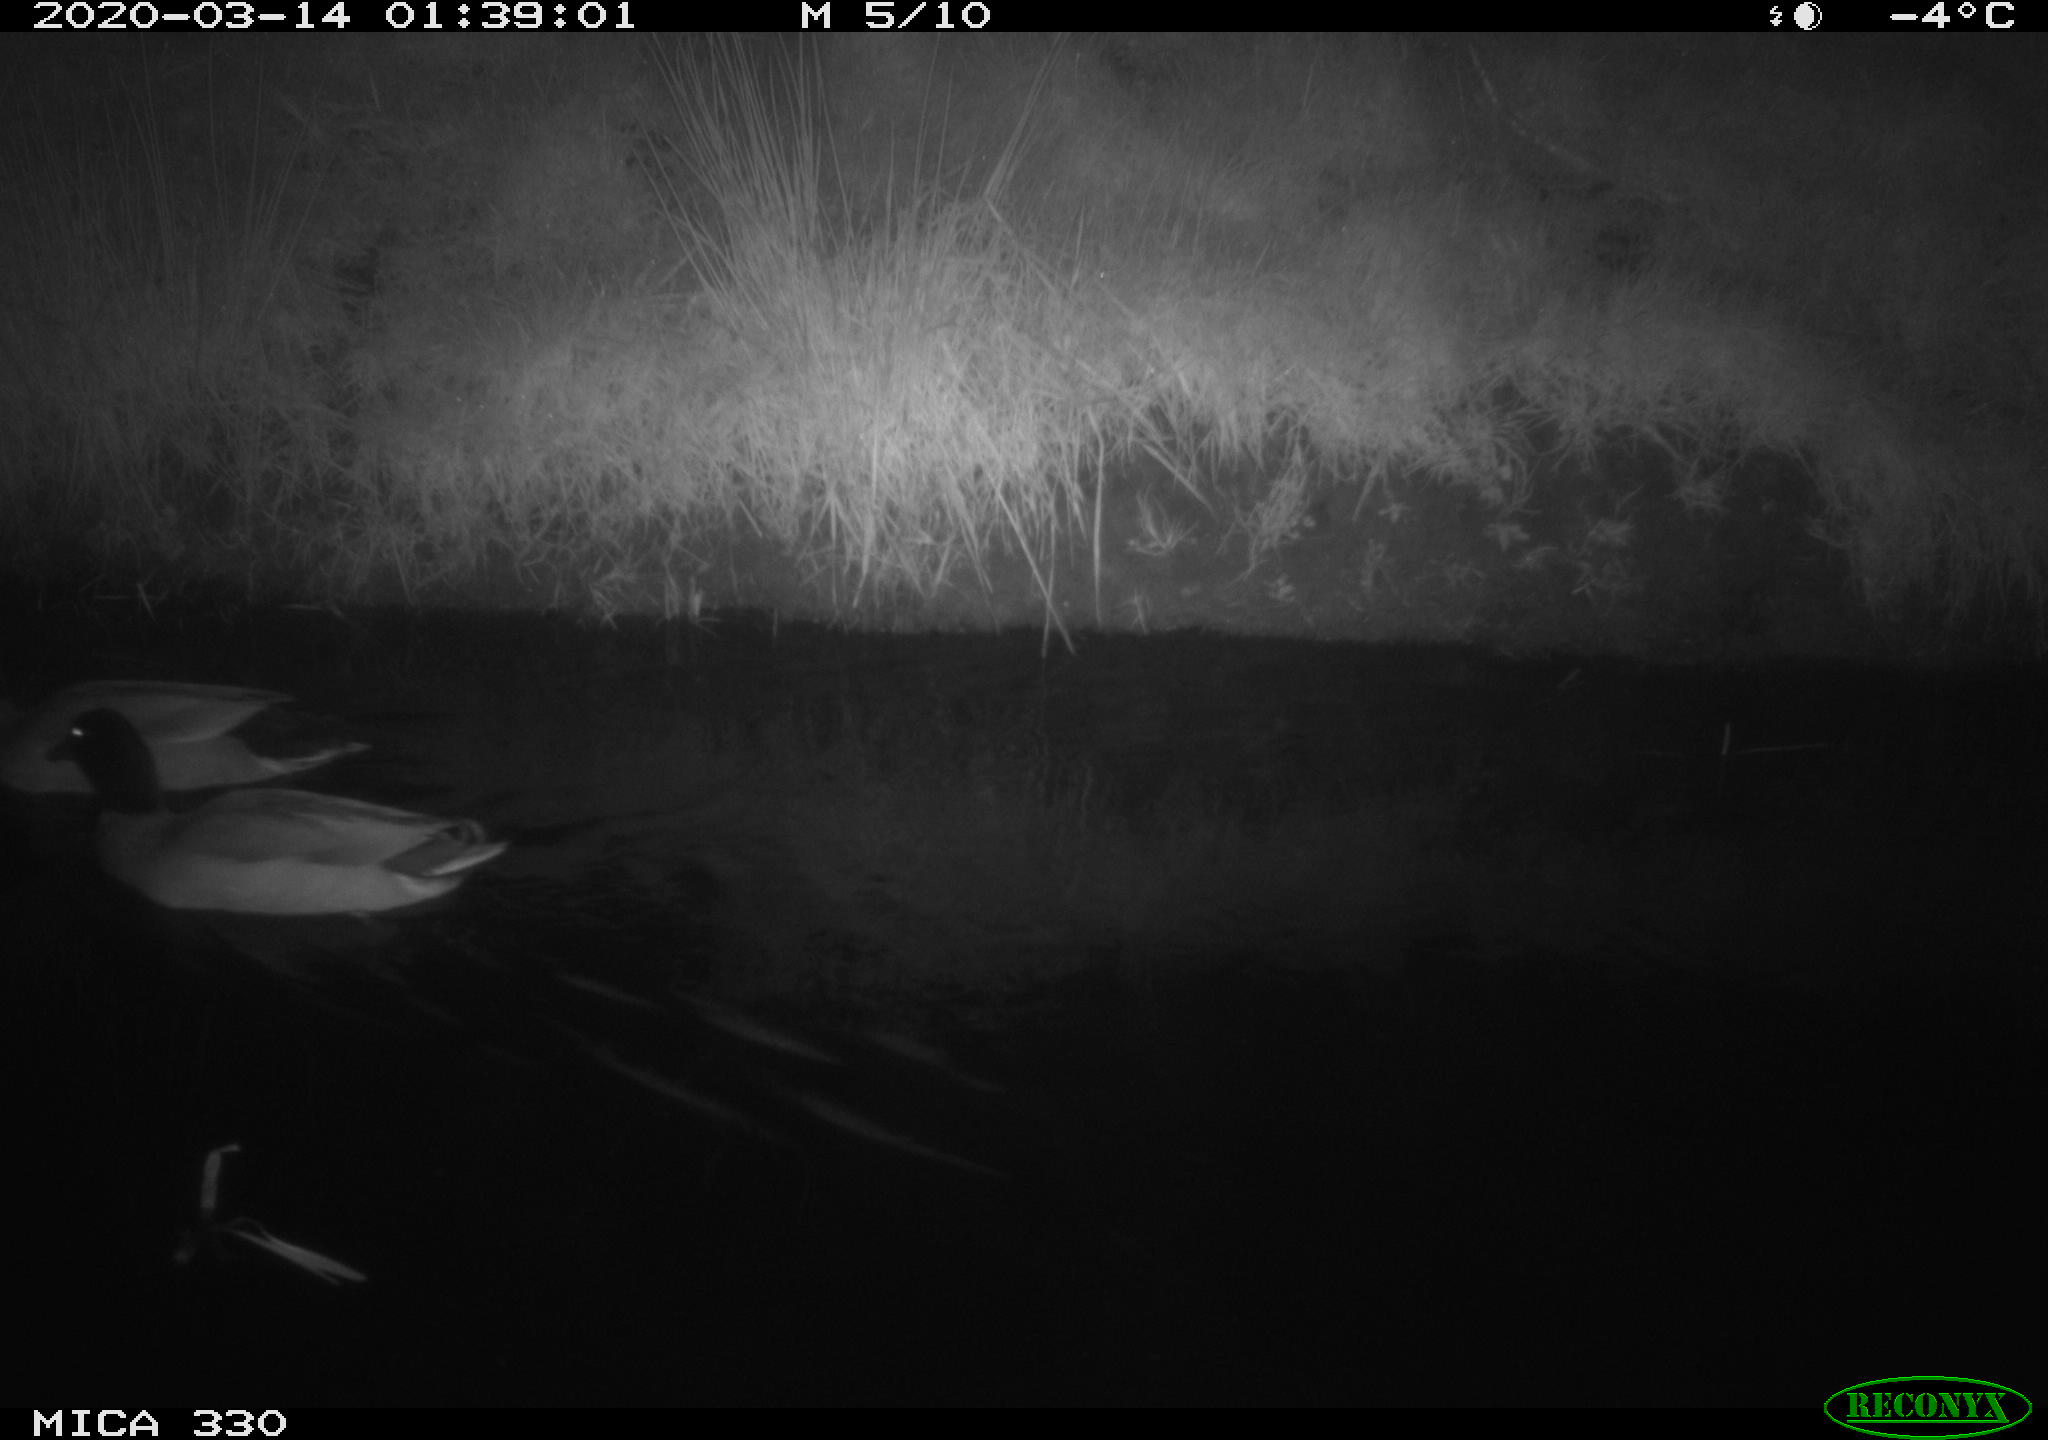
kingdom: Animalia
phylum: Chordata
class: Aves
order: Anseriformes
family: Anatidae
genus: Anas
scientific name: Anas platyrhynchos
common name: Mallard
